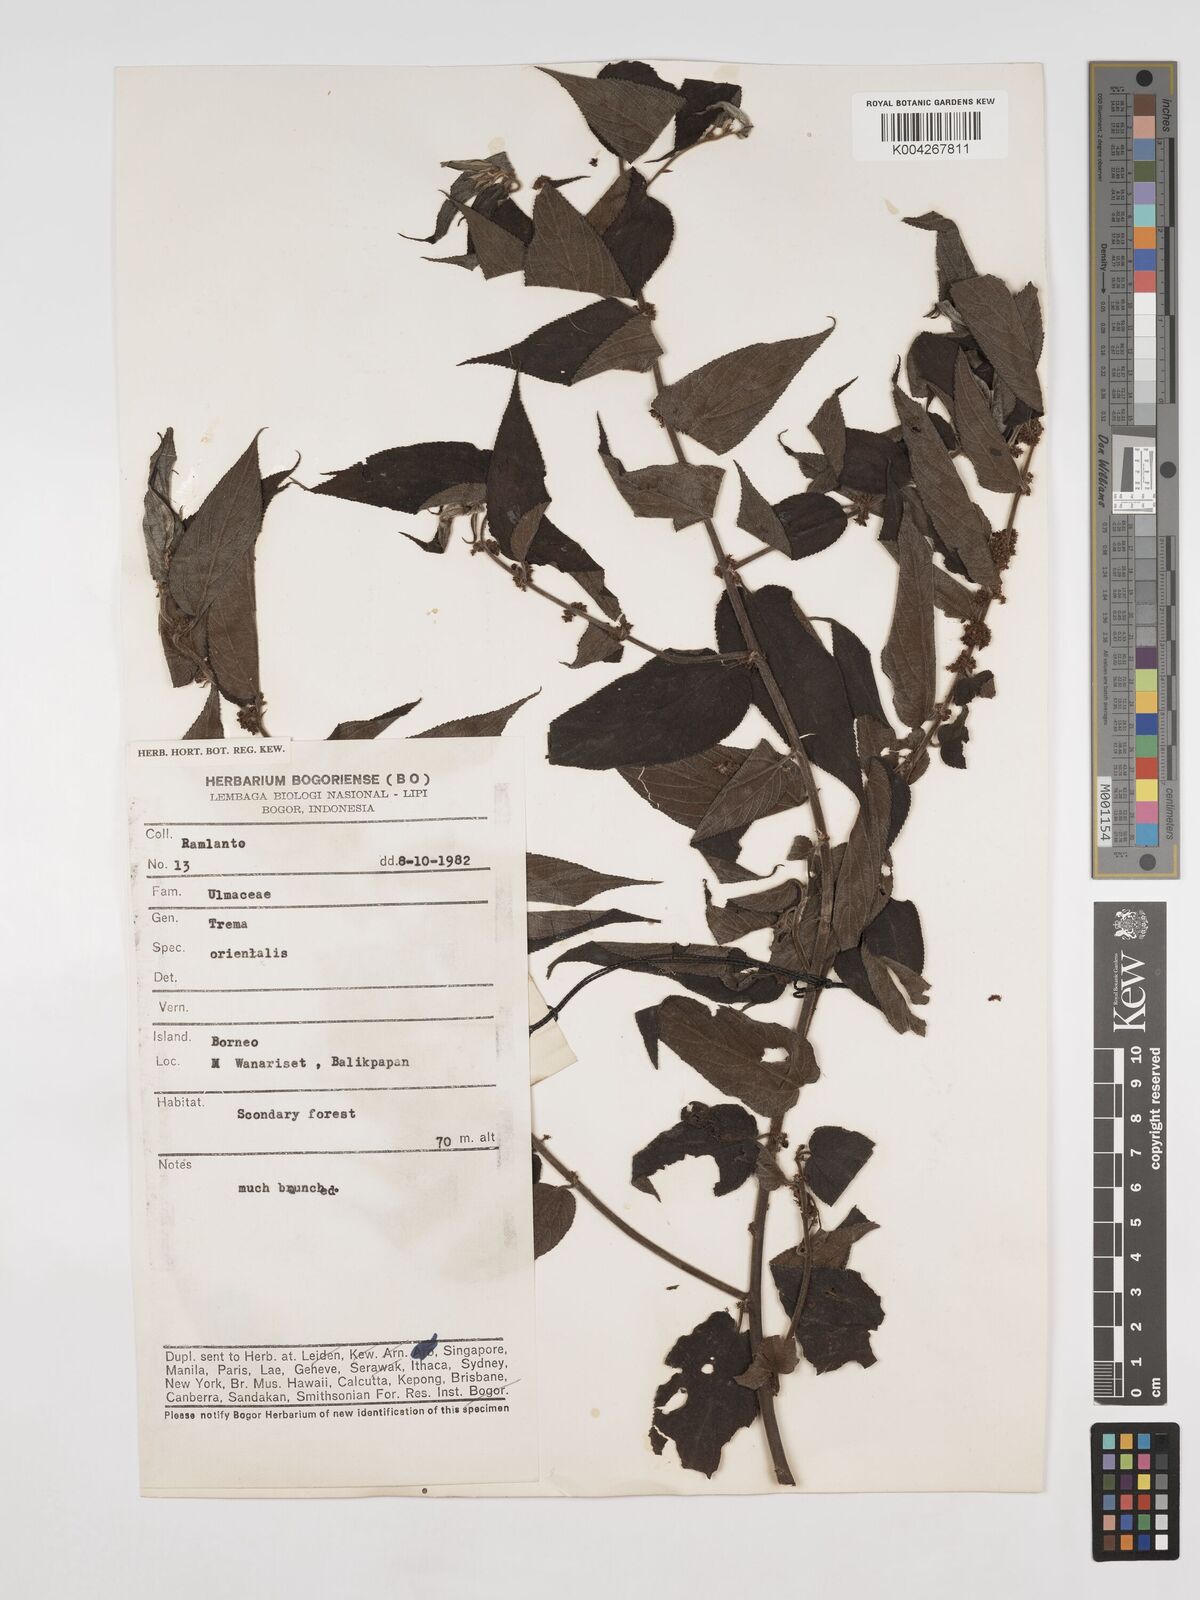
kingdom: Plantae
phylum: Tracheophyta
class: Magnoliopsida
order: Rosales
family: Cannabaceae
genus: Trema
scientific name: Trema orientale
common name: Indian charcoal tree
